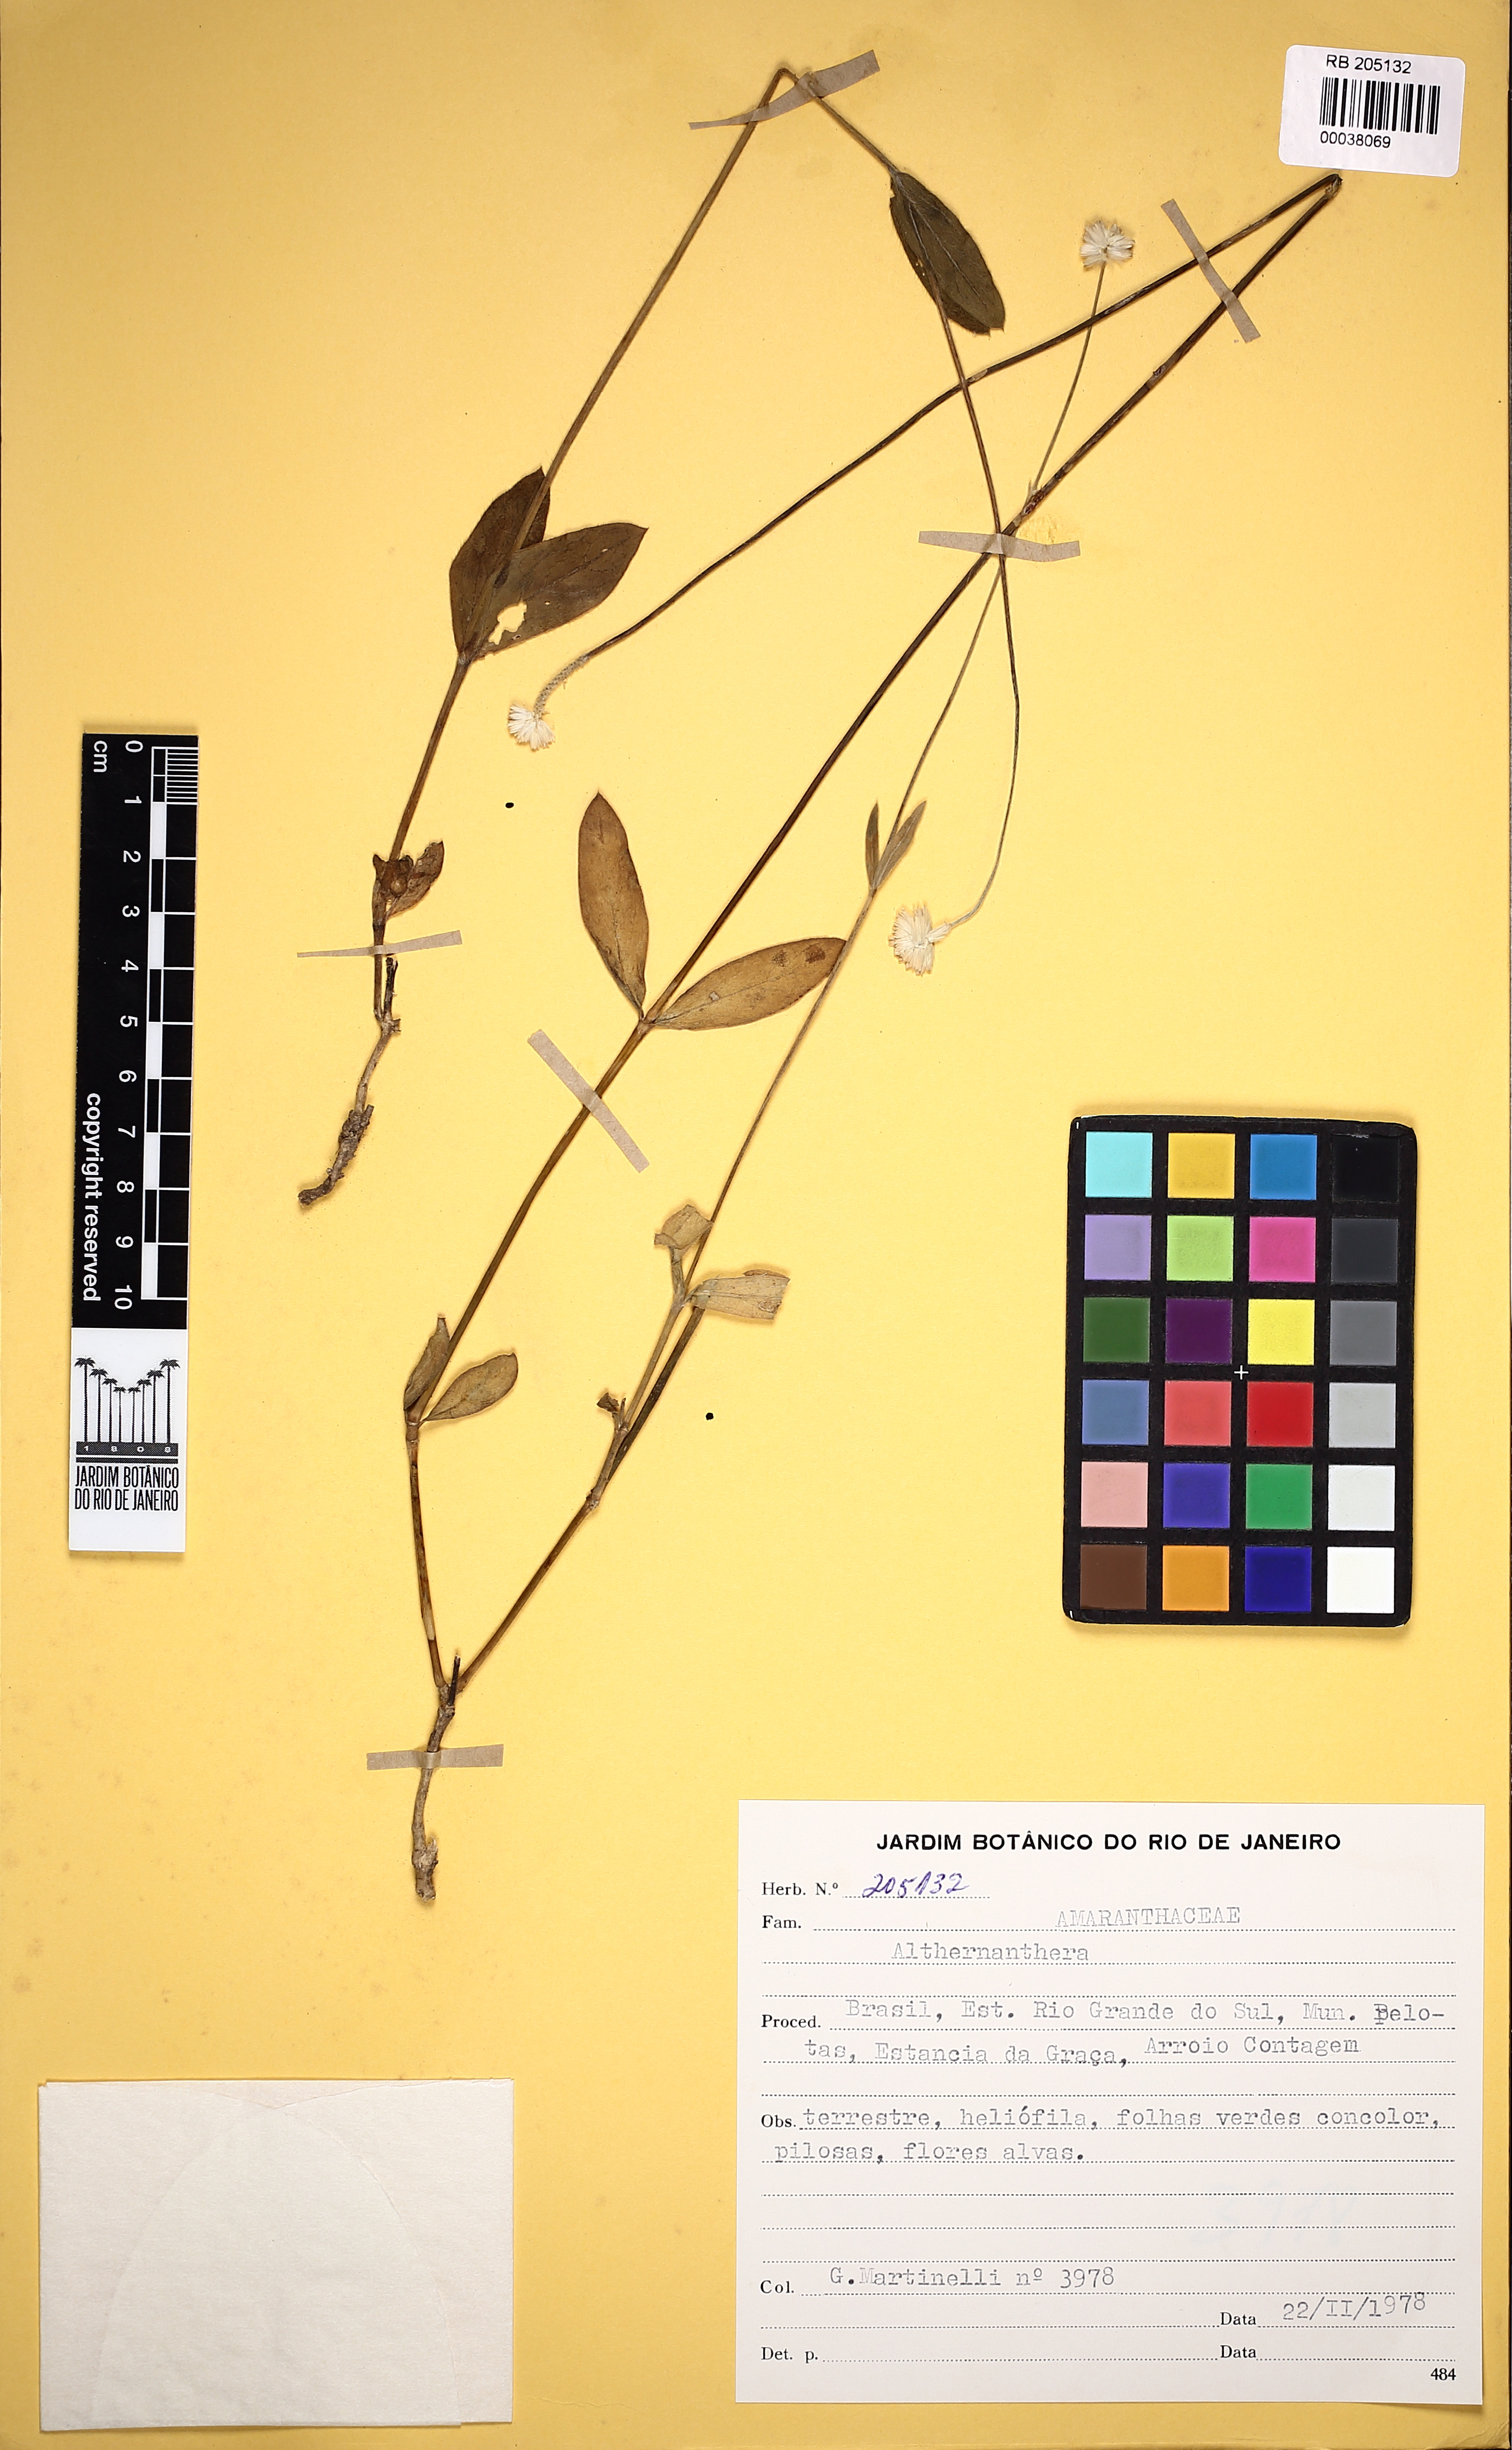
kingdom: Plantae
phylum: Tracheophyta
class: Magnoliopsida
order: Caryophyllales
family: Amaranthaceae
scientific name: Amaranthaceae
